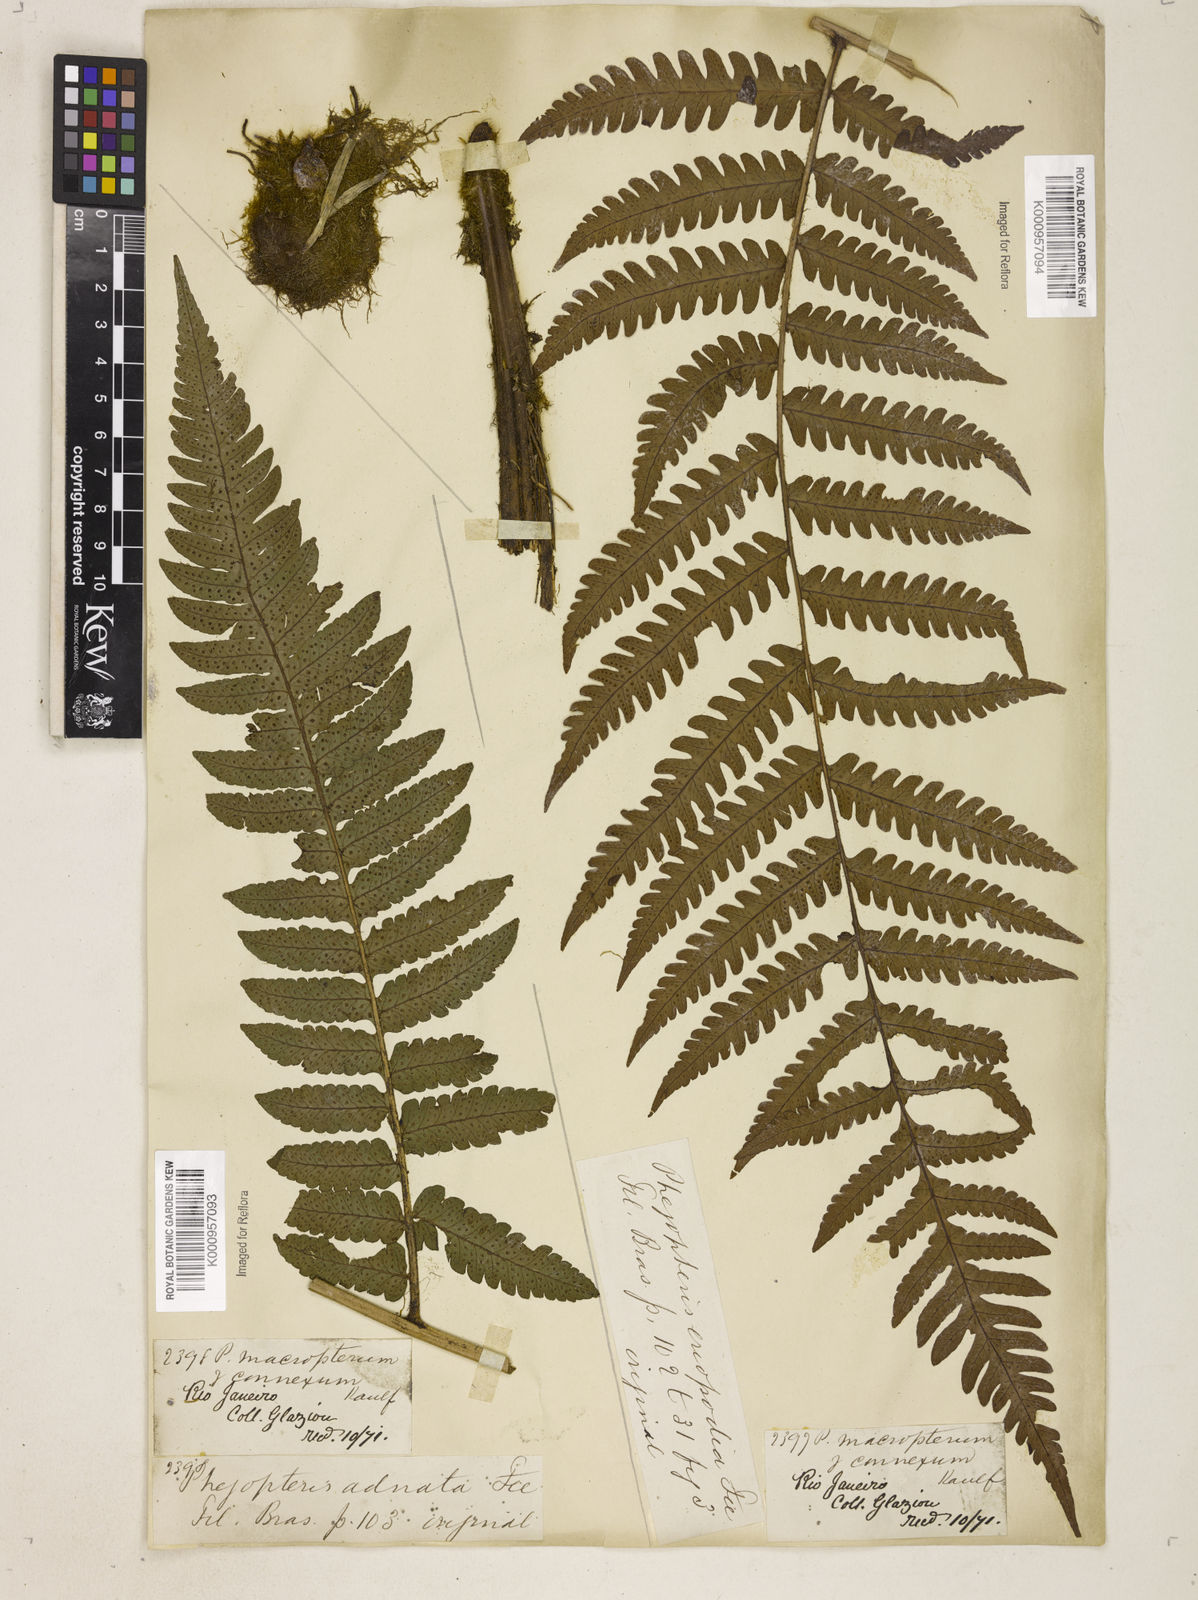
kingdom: Plantae
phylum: Tracheophyta
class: Polypodiopsida
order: Polypodiales
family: Dryopteridaceae
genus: Megalastrum
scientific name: Megalastrum connexum
